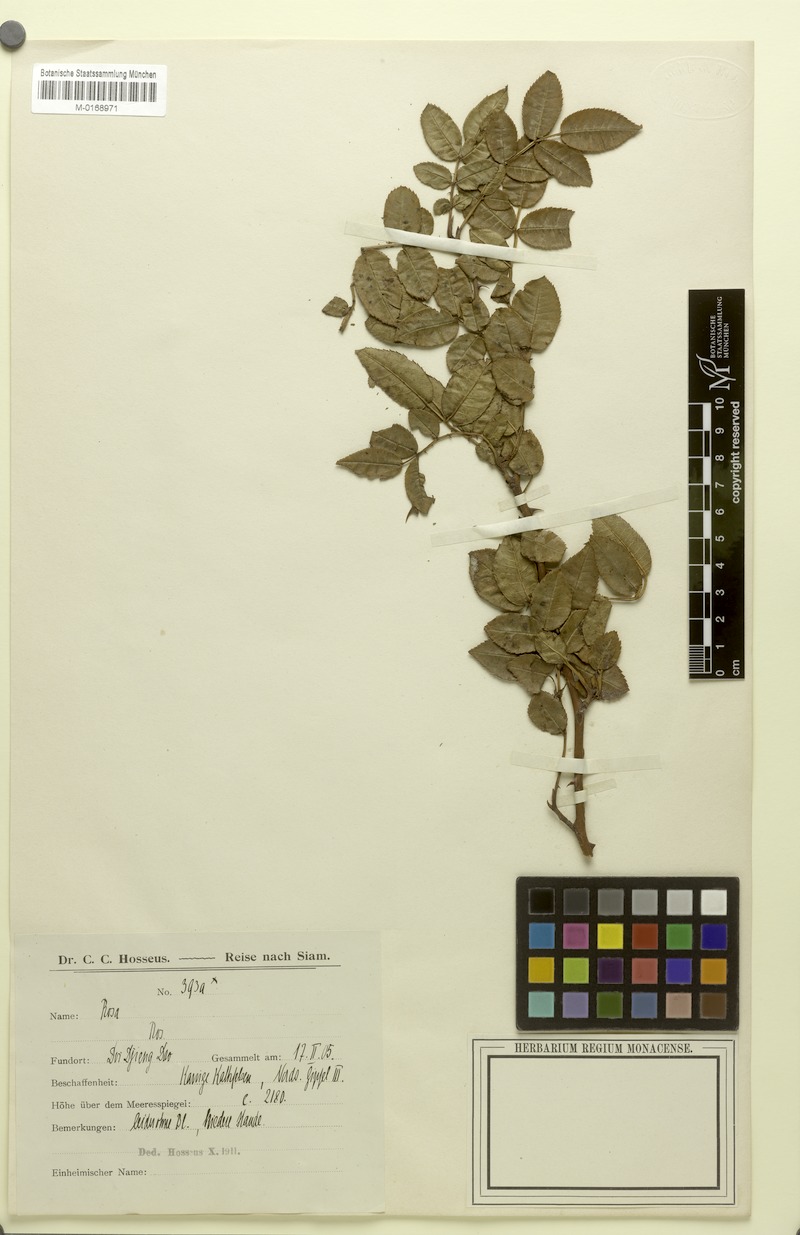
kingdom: Plantae
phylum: Tracheophyta
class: Magnoliopsida
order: Rosales
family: Rosaceae
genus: Rosa
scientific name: Rosa
